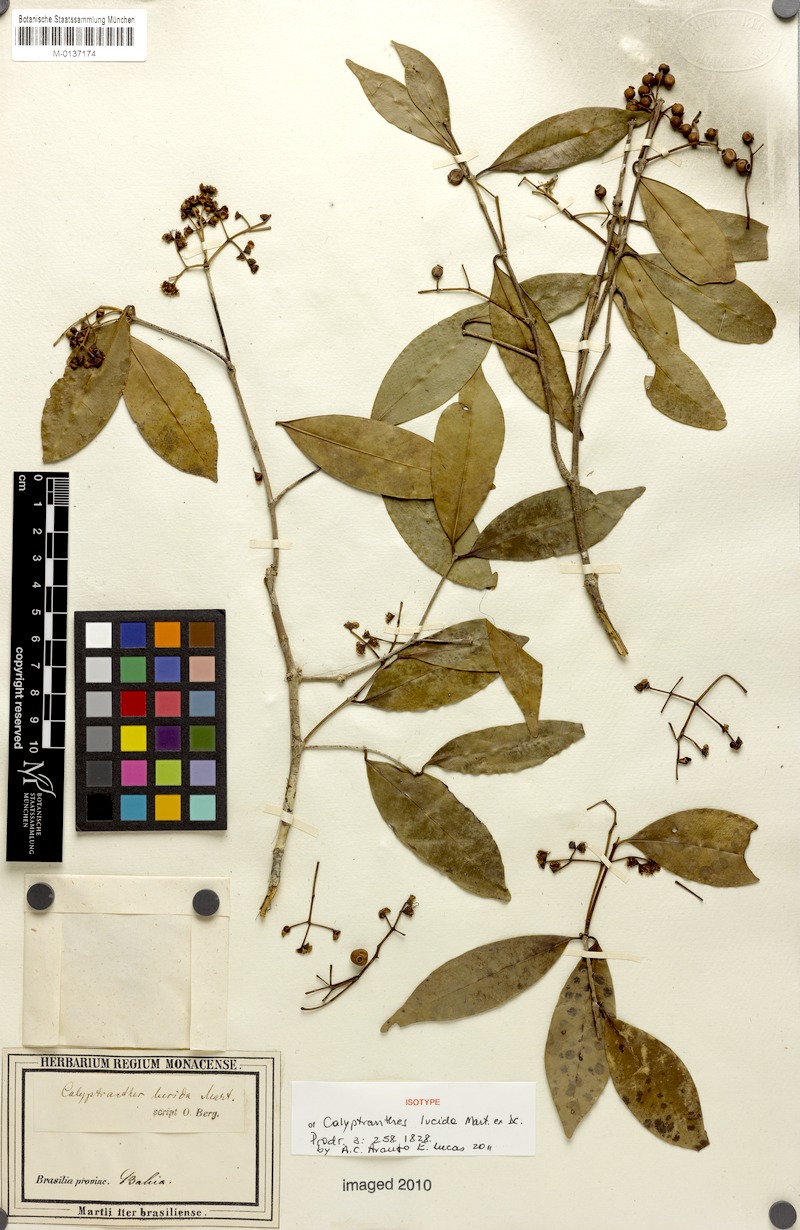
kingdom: Plantae
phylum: Tracheophyta
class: Magnoliopsida
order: Myrtales
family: Myrtaceae
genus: Myrcia
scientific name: Myrcia neolucida
